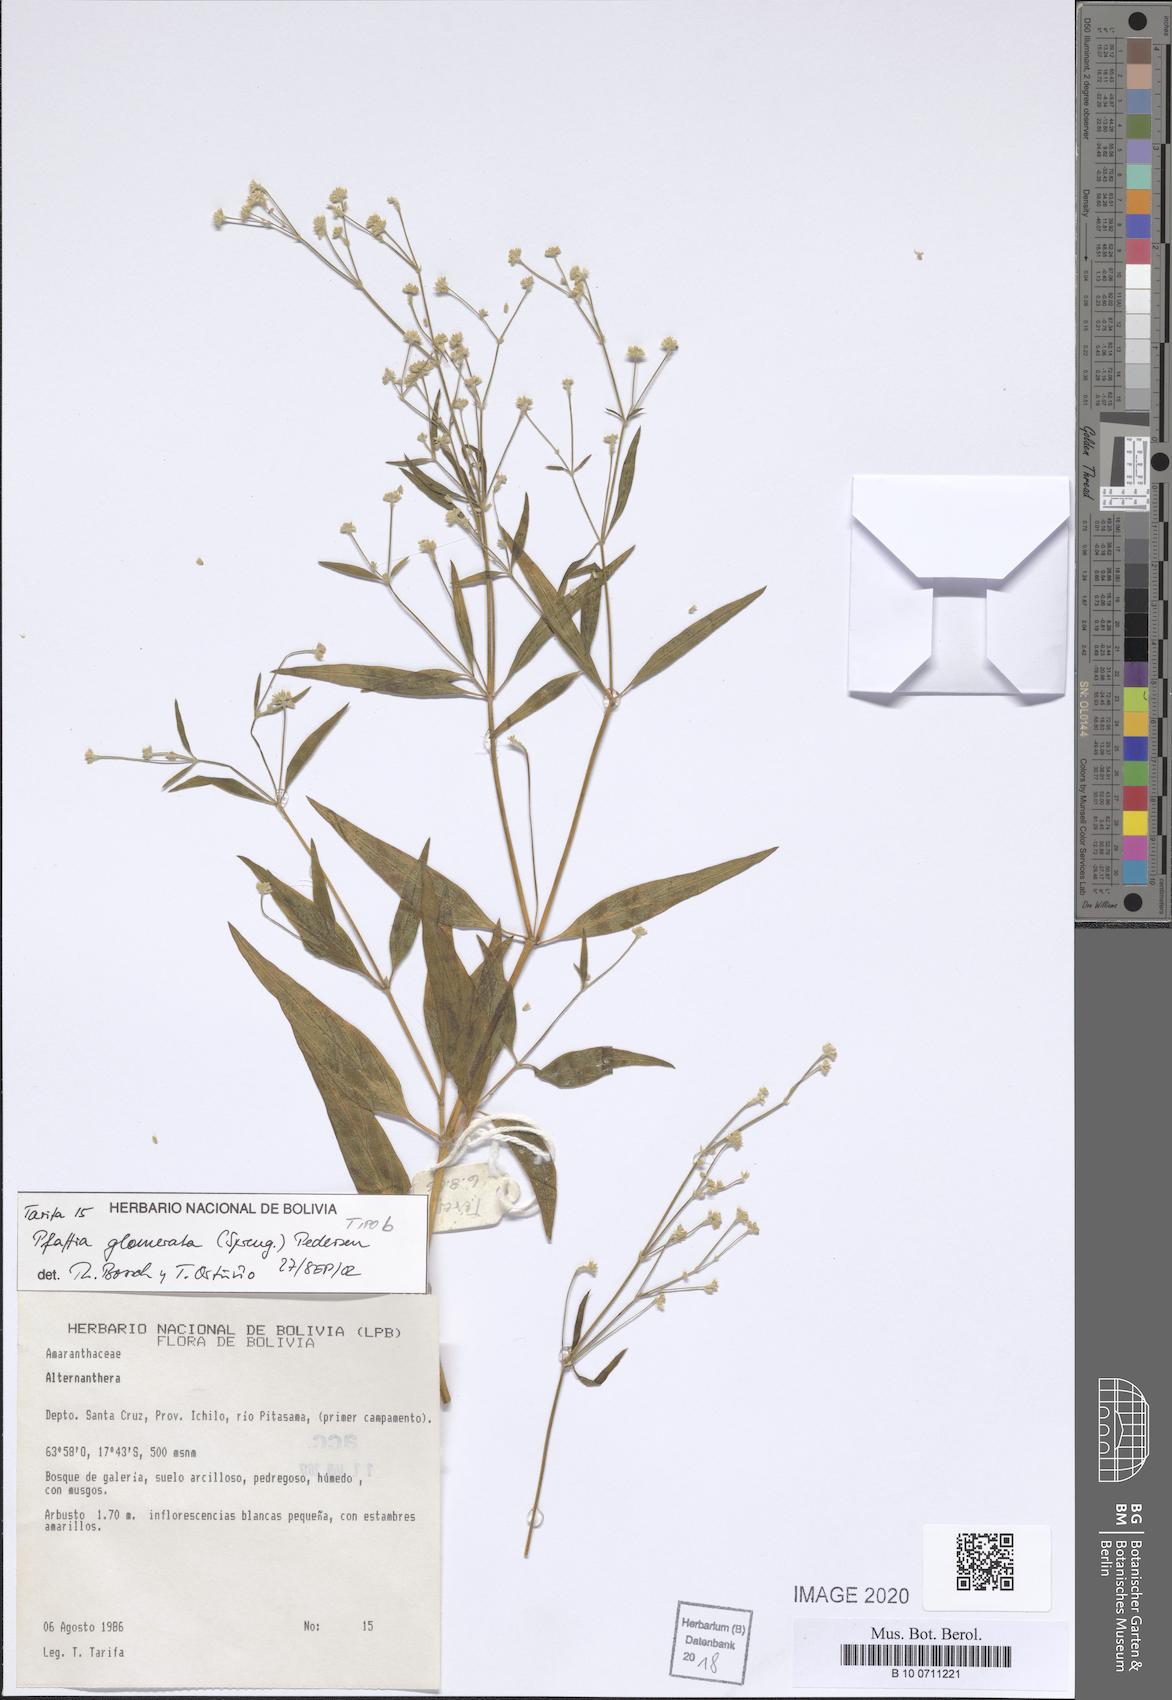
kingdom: Plantae
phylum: Tracheophyta
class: Magnoliopsida
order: Caryophyllales
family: Amaranthaceae
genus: Pfaffia
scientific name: Pfaffia glomerata
